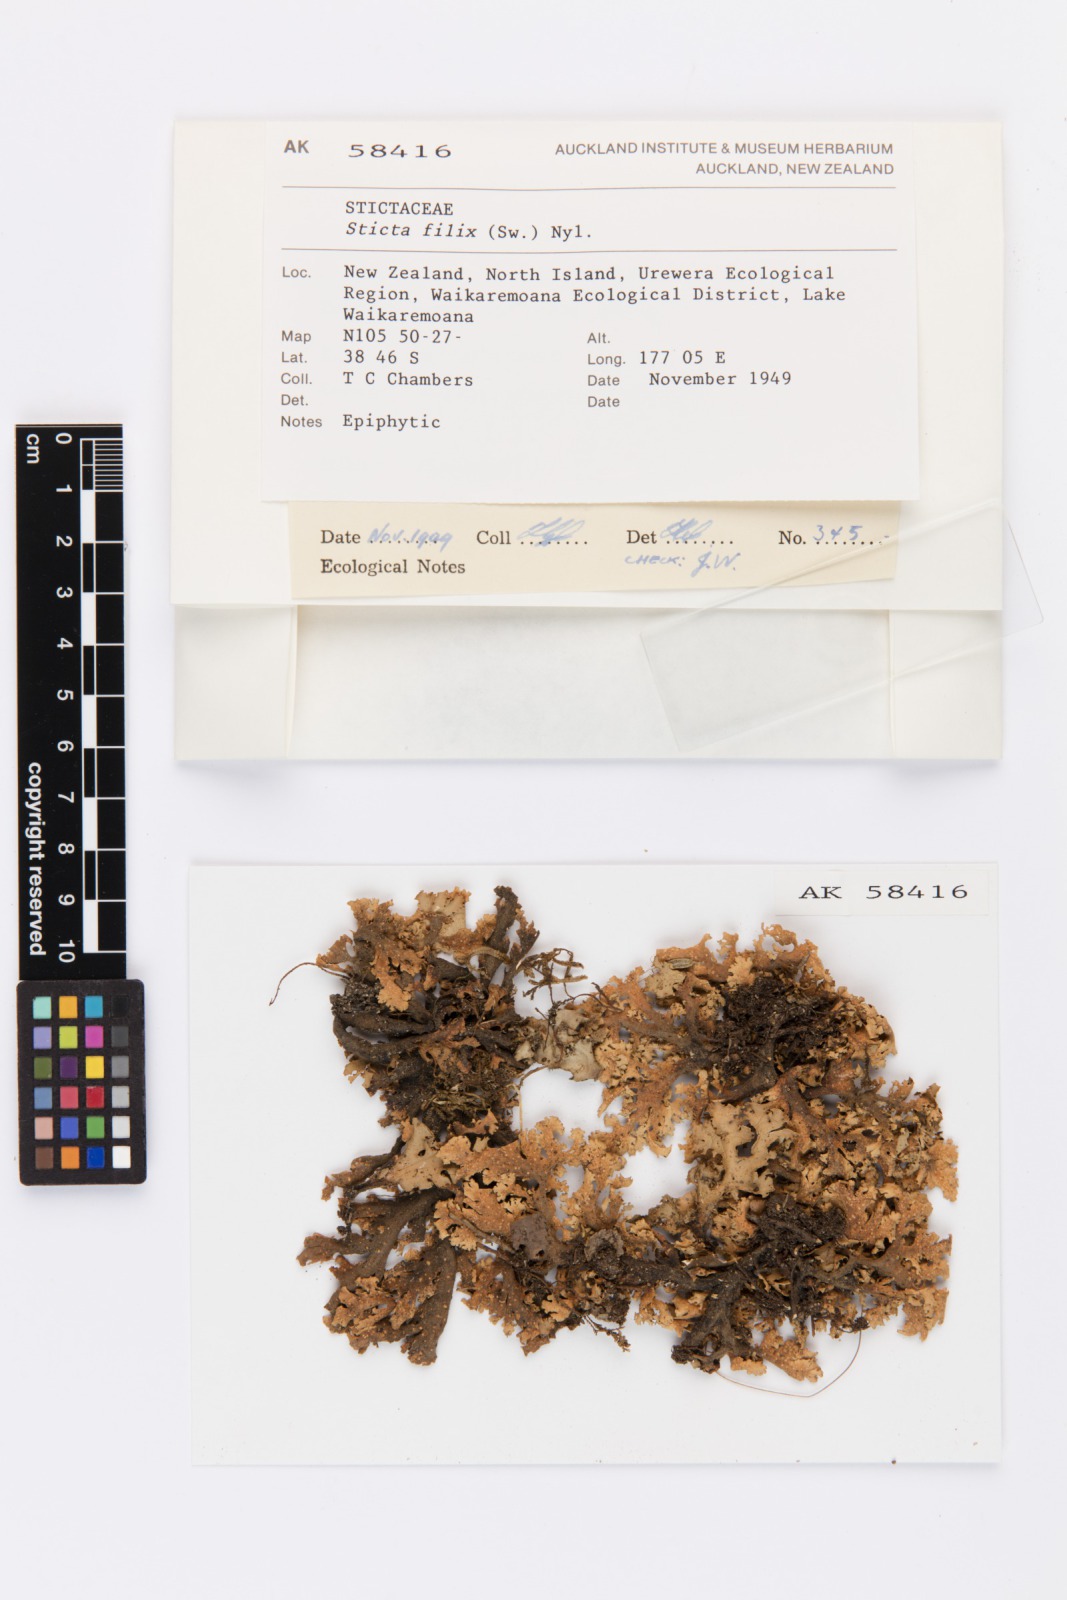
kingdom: Fungi
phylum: Ascomycota
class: Lecanoromycetes
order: Peltigerales
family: Lobariaceae
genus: Sticta
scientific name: Sticta filix
